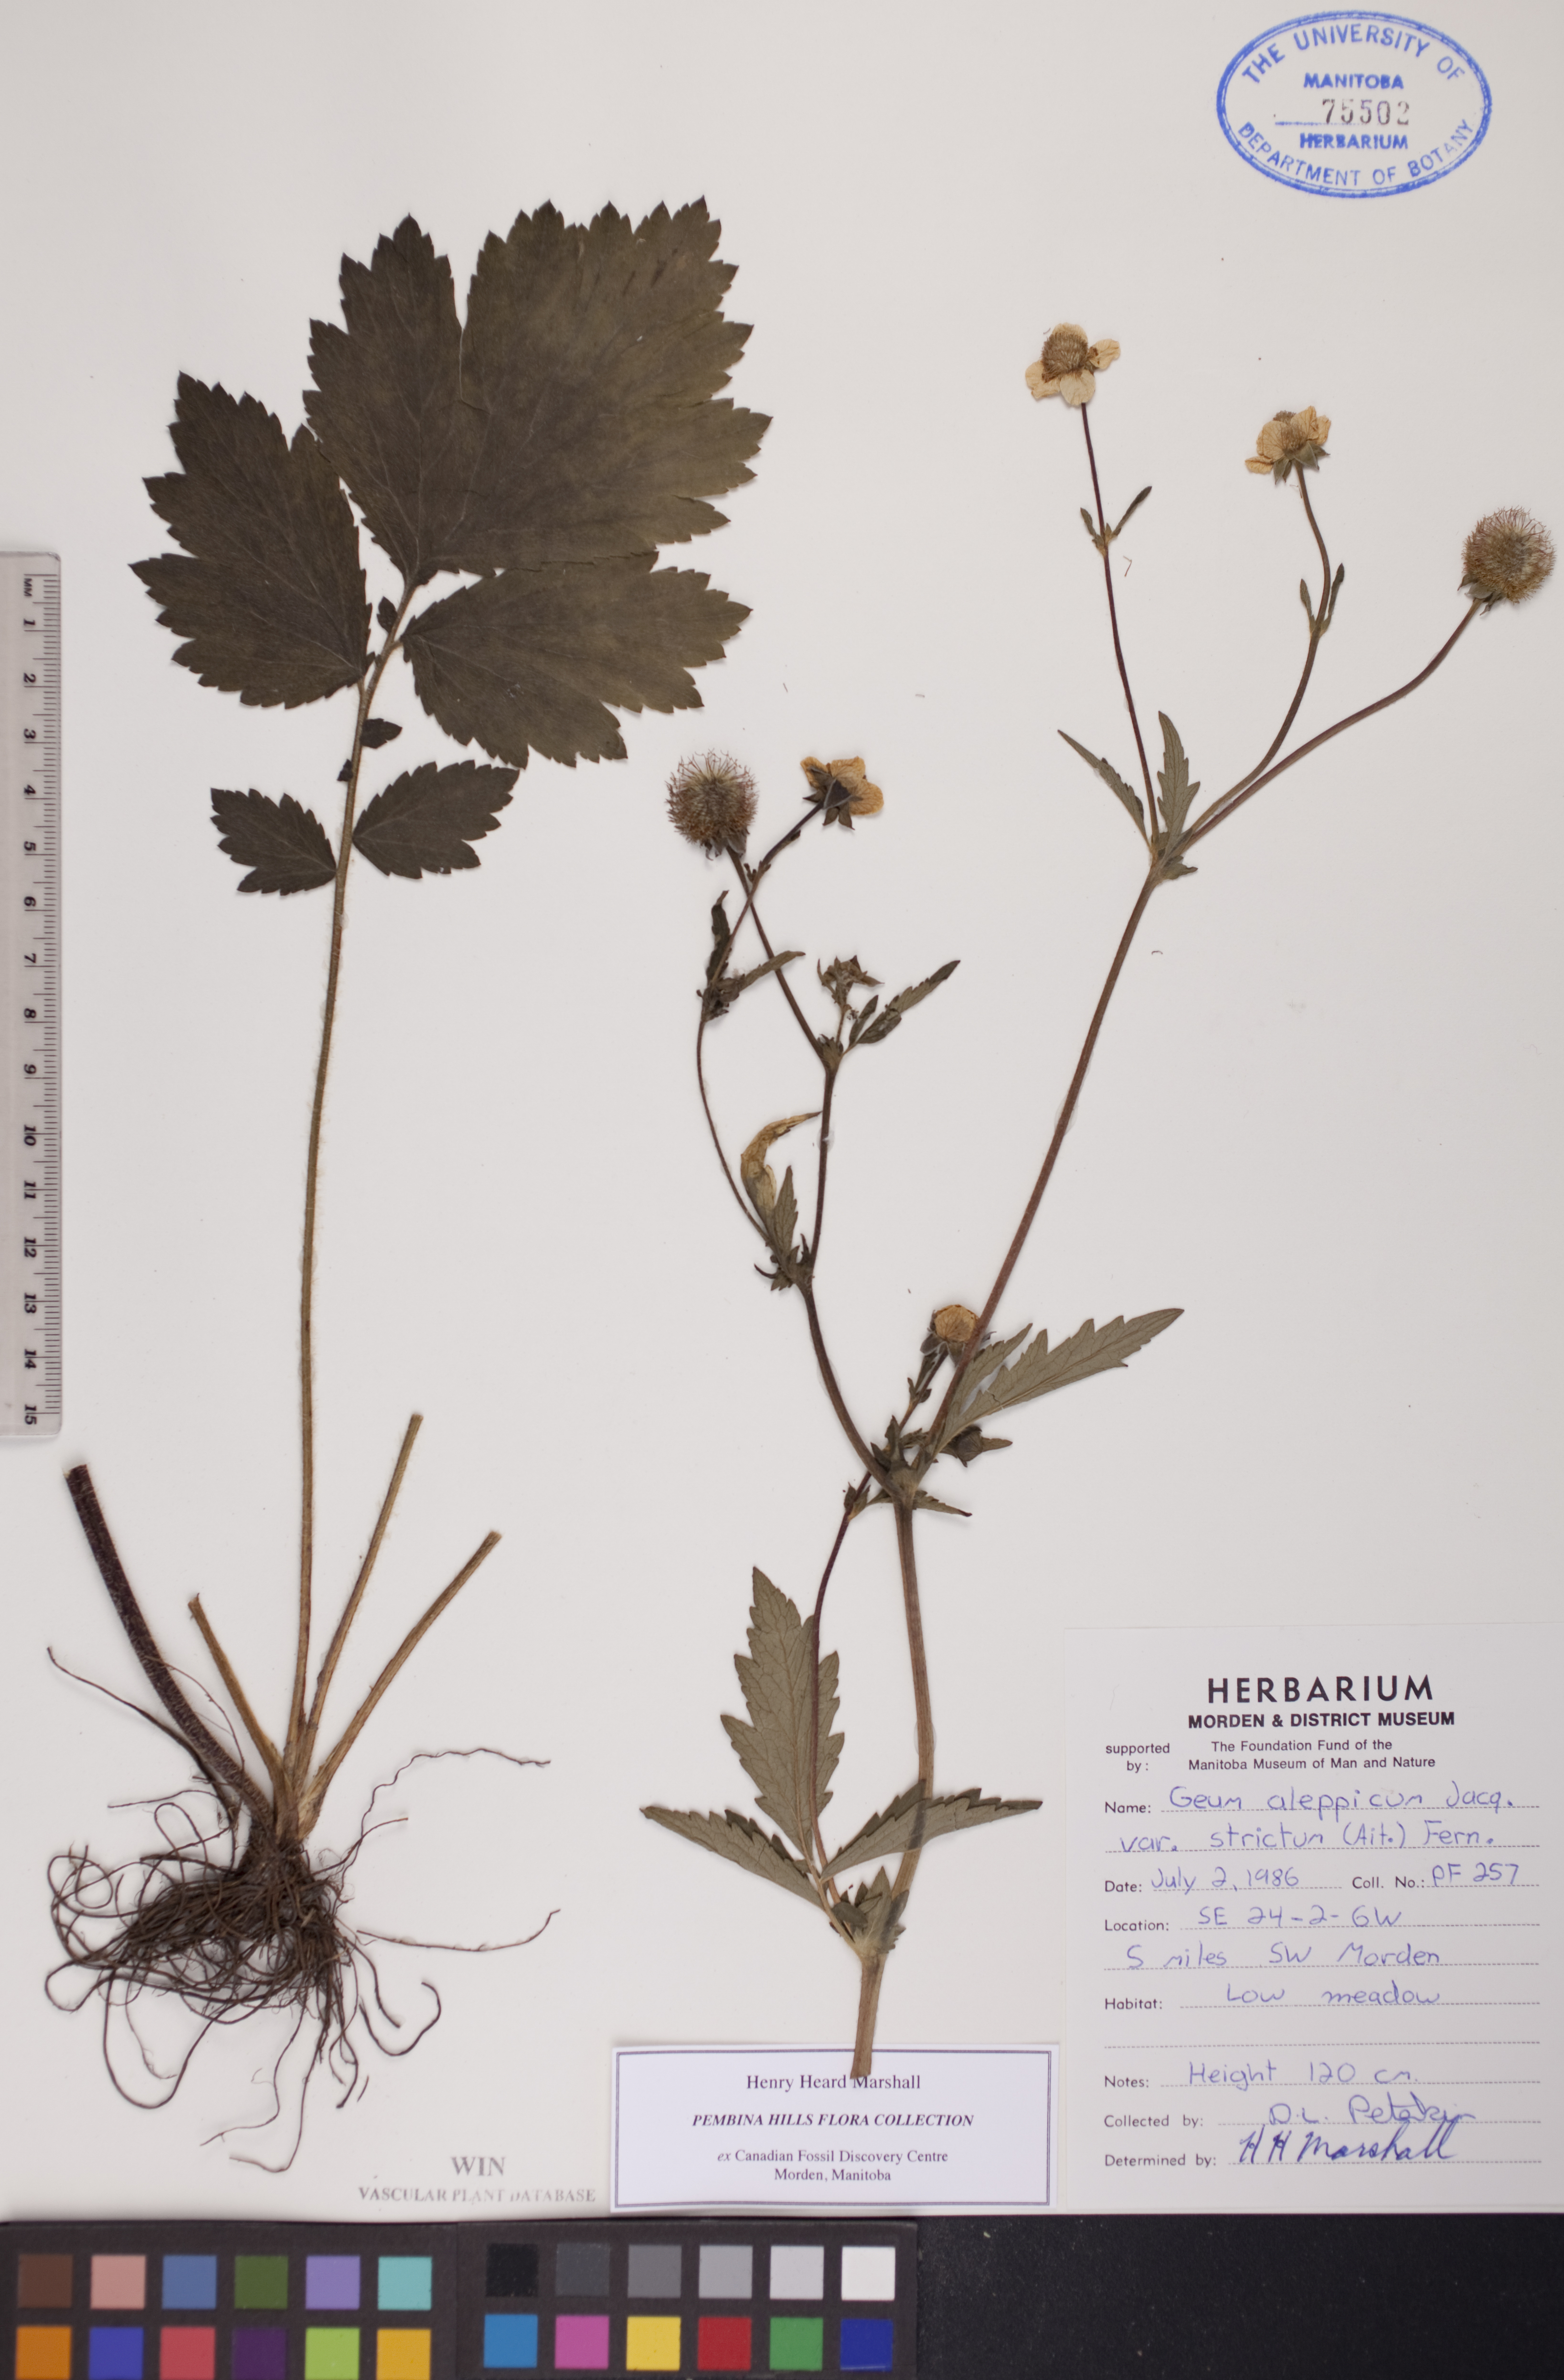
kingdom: Plantae
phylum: Tracheophyta
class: Magnoliopsida
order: Rosales
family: Rosaceae
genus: Geum
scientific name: Geum aleppicum
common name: Yellow avens
